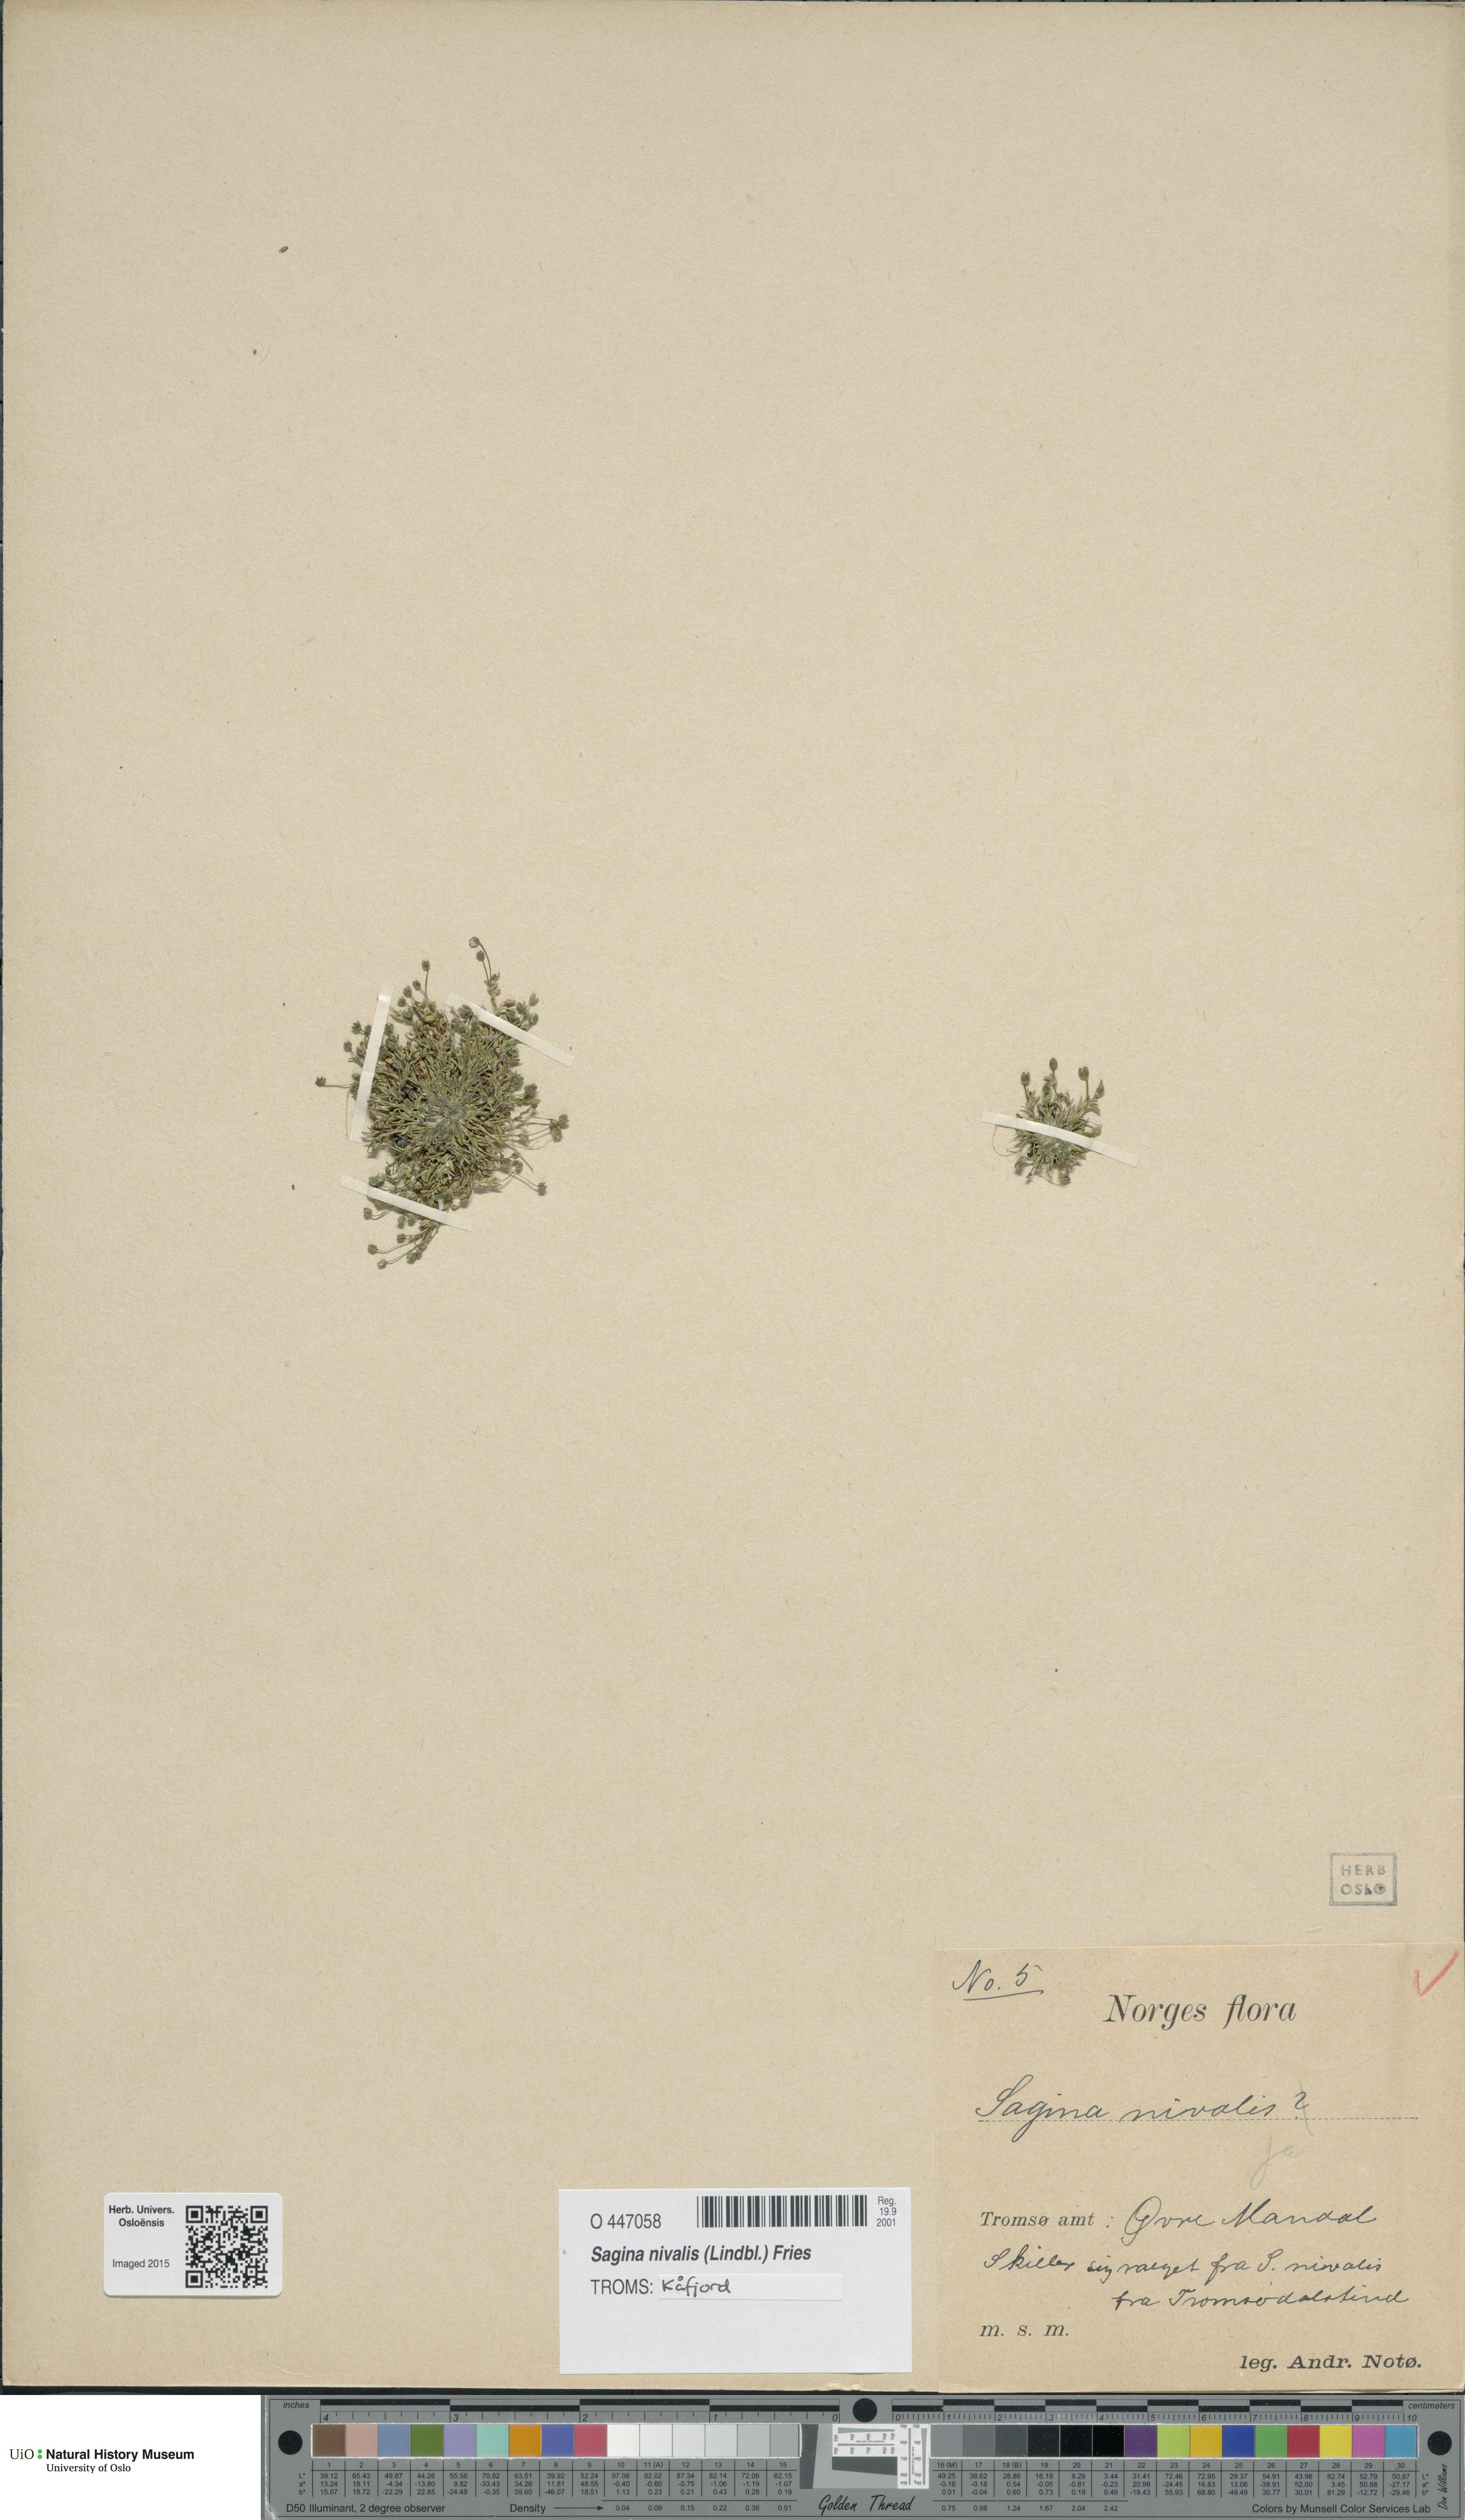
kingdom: Plantae
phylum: Tracheophyta
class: Magnoliopsida
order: Caryophyllales
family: Caryophyllaceae
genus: Sagina
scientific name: Sagina nivalis
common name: Snow pearlwort
